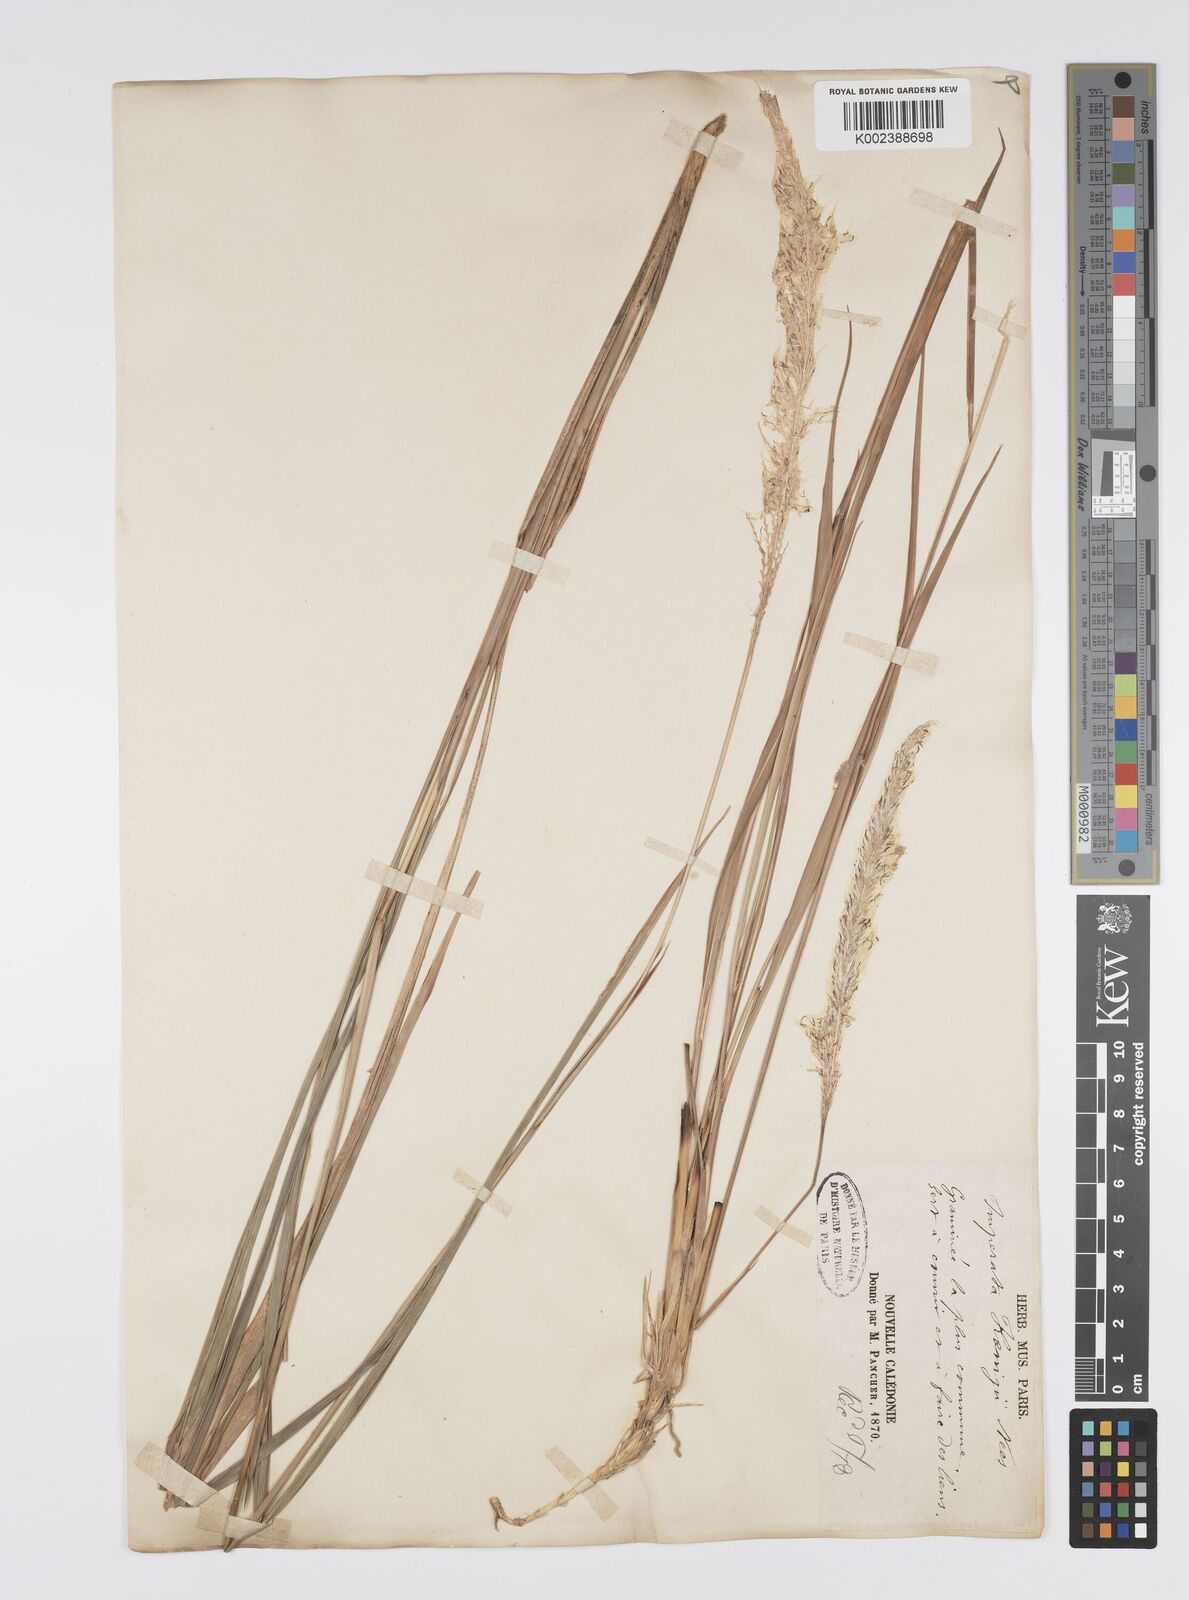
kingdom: Plantae
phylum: Tracheophyta
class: Liliopsida
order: Poales
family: Poaceae
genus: Imperata
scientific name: Imperata cylindrica
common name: Cogongrass
